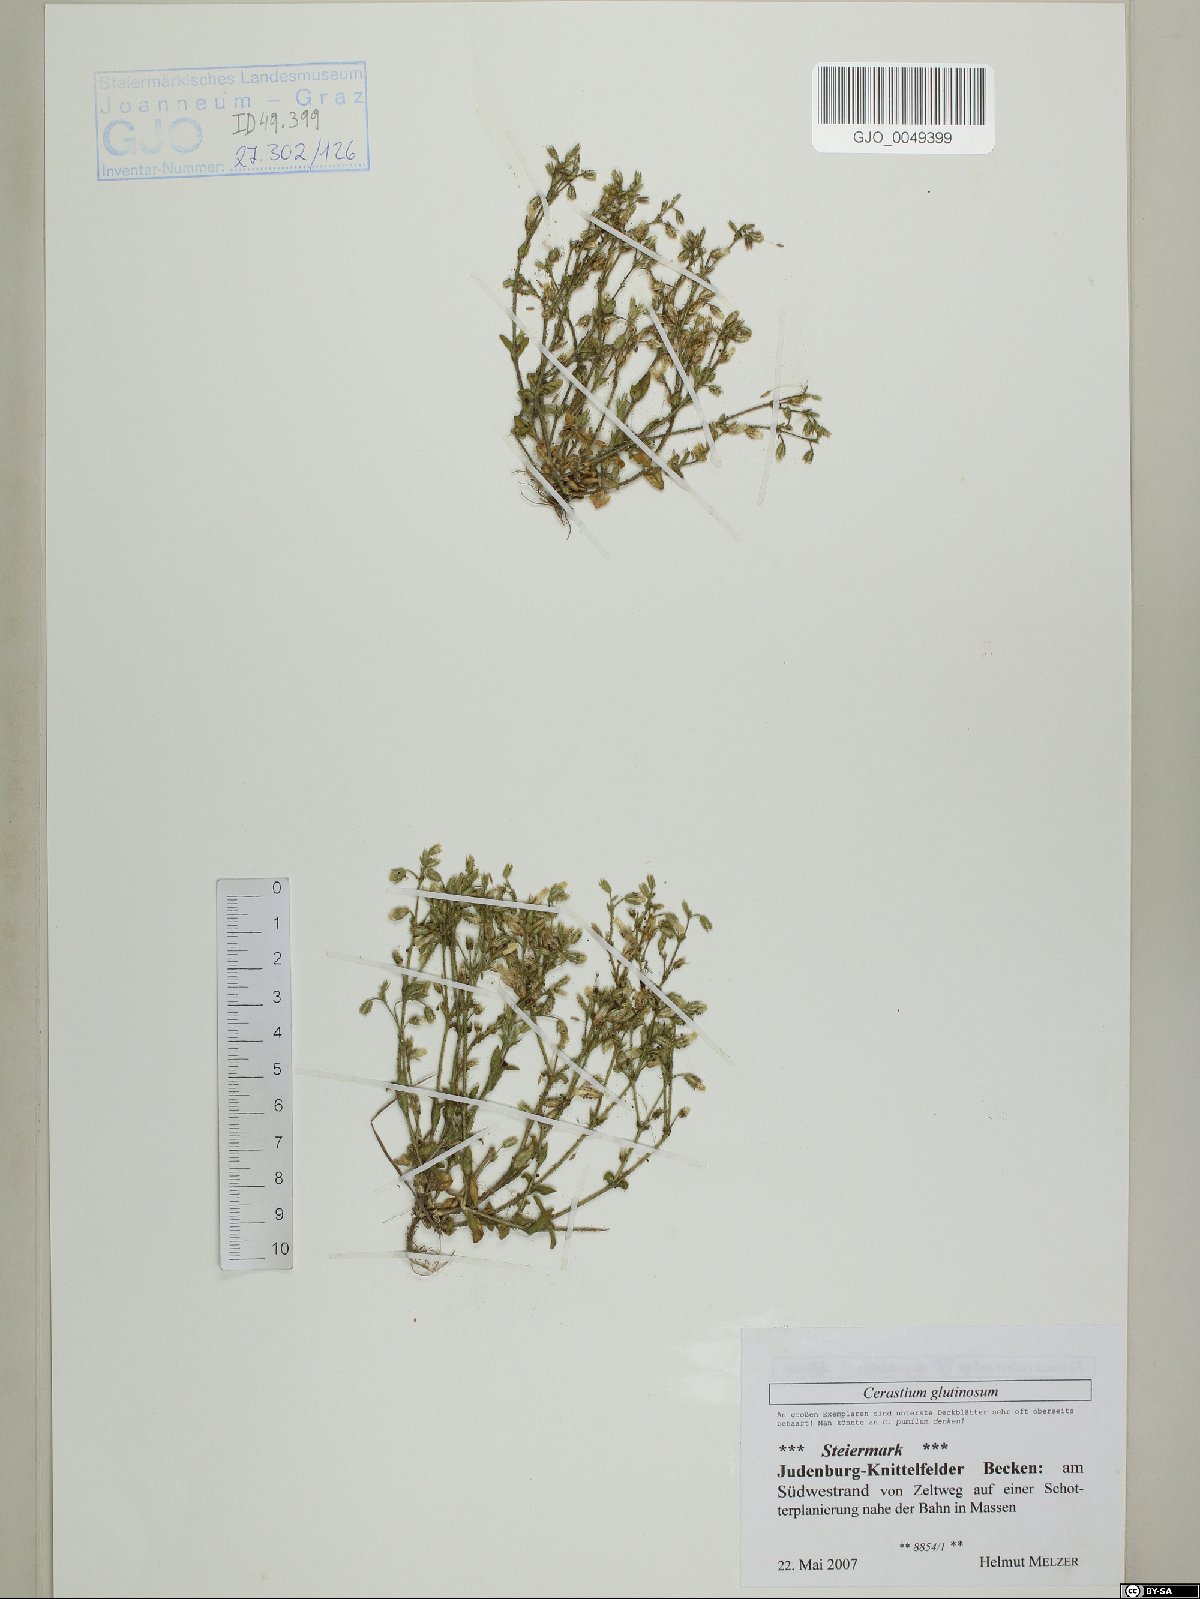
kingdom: Plantae
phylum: Tracheophyta
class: Magnoliopsida
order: Caryophyllales
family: Caryophyllaceae
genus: Cerastium
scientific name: Cerastium glutinosum
